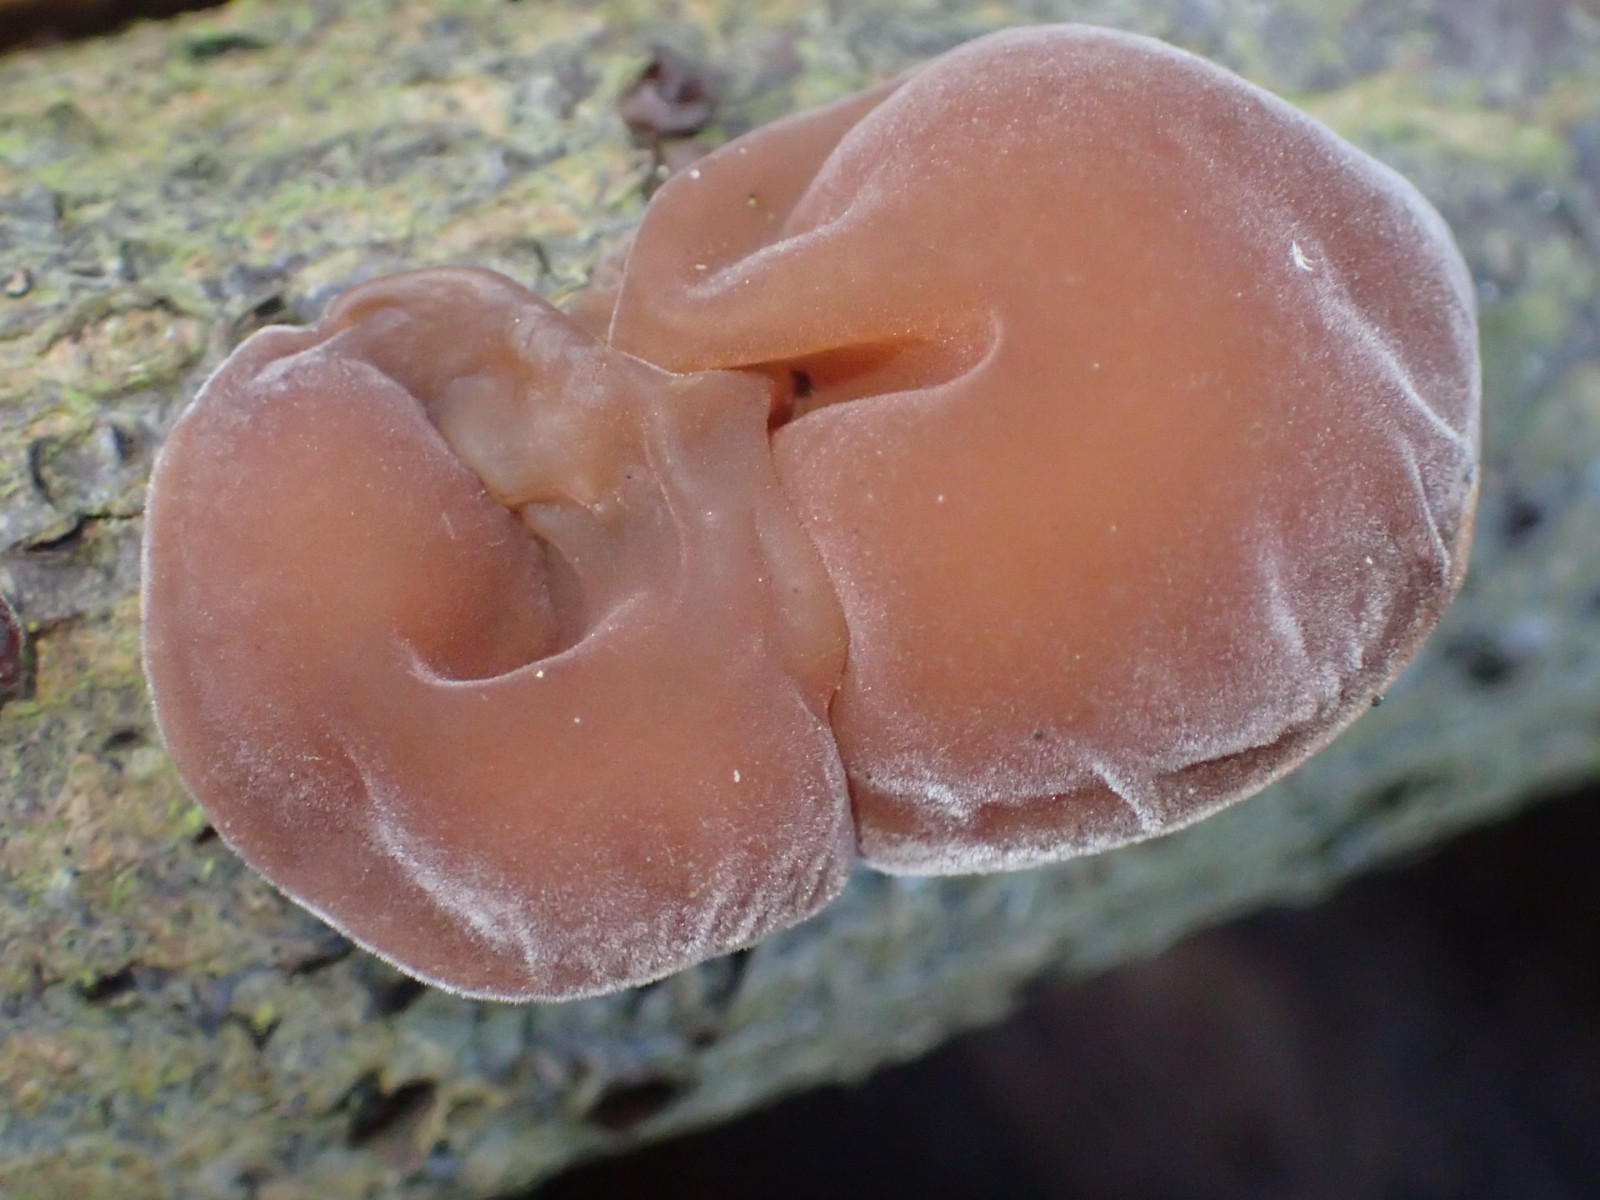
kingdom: Fungi
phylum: Basidiomycota
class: Agaricomycetes
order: Auriculariales
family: Auriculariaceae
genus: Auricularia
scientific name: Auricularia auricula-judae
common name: almindelig judasøre
